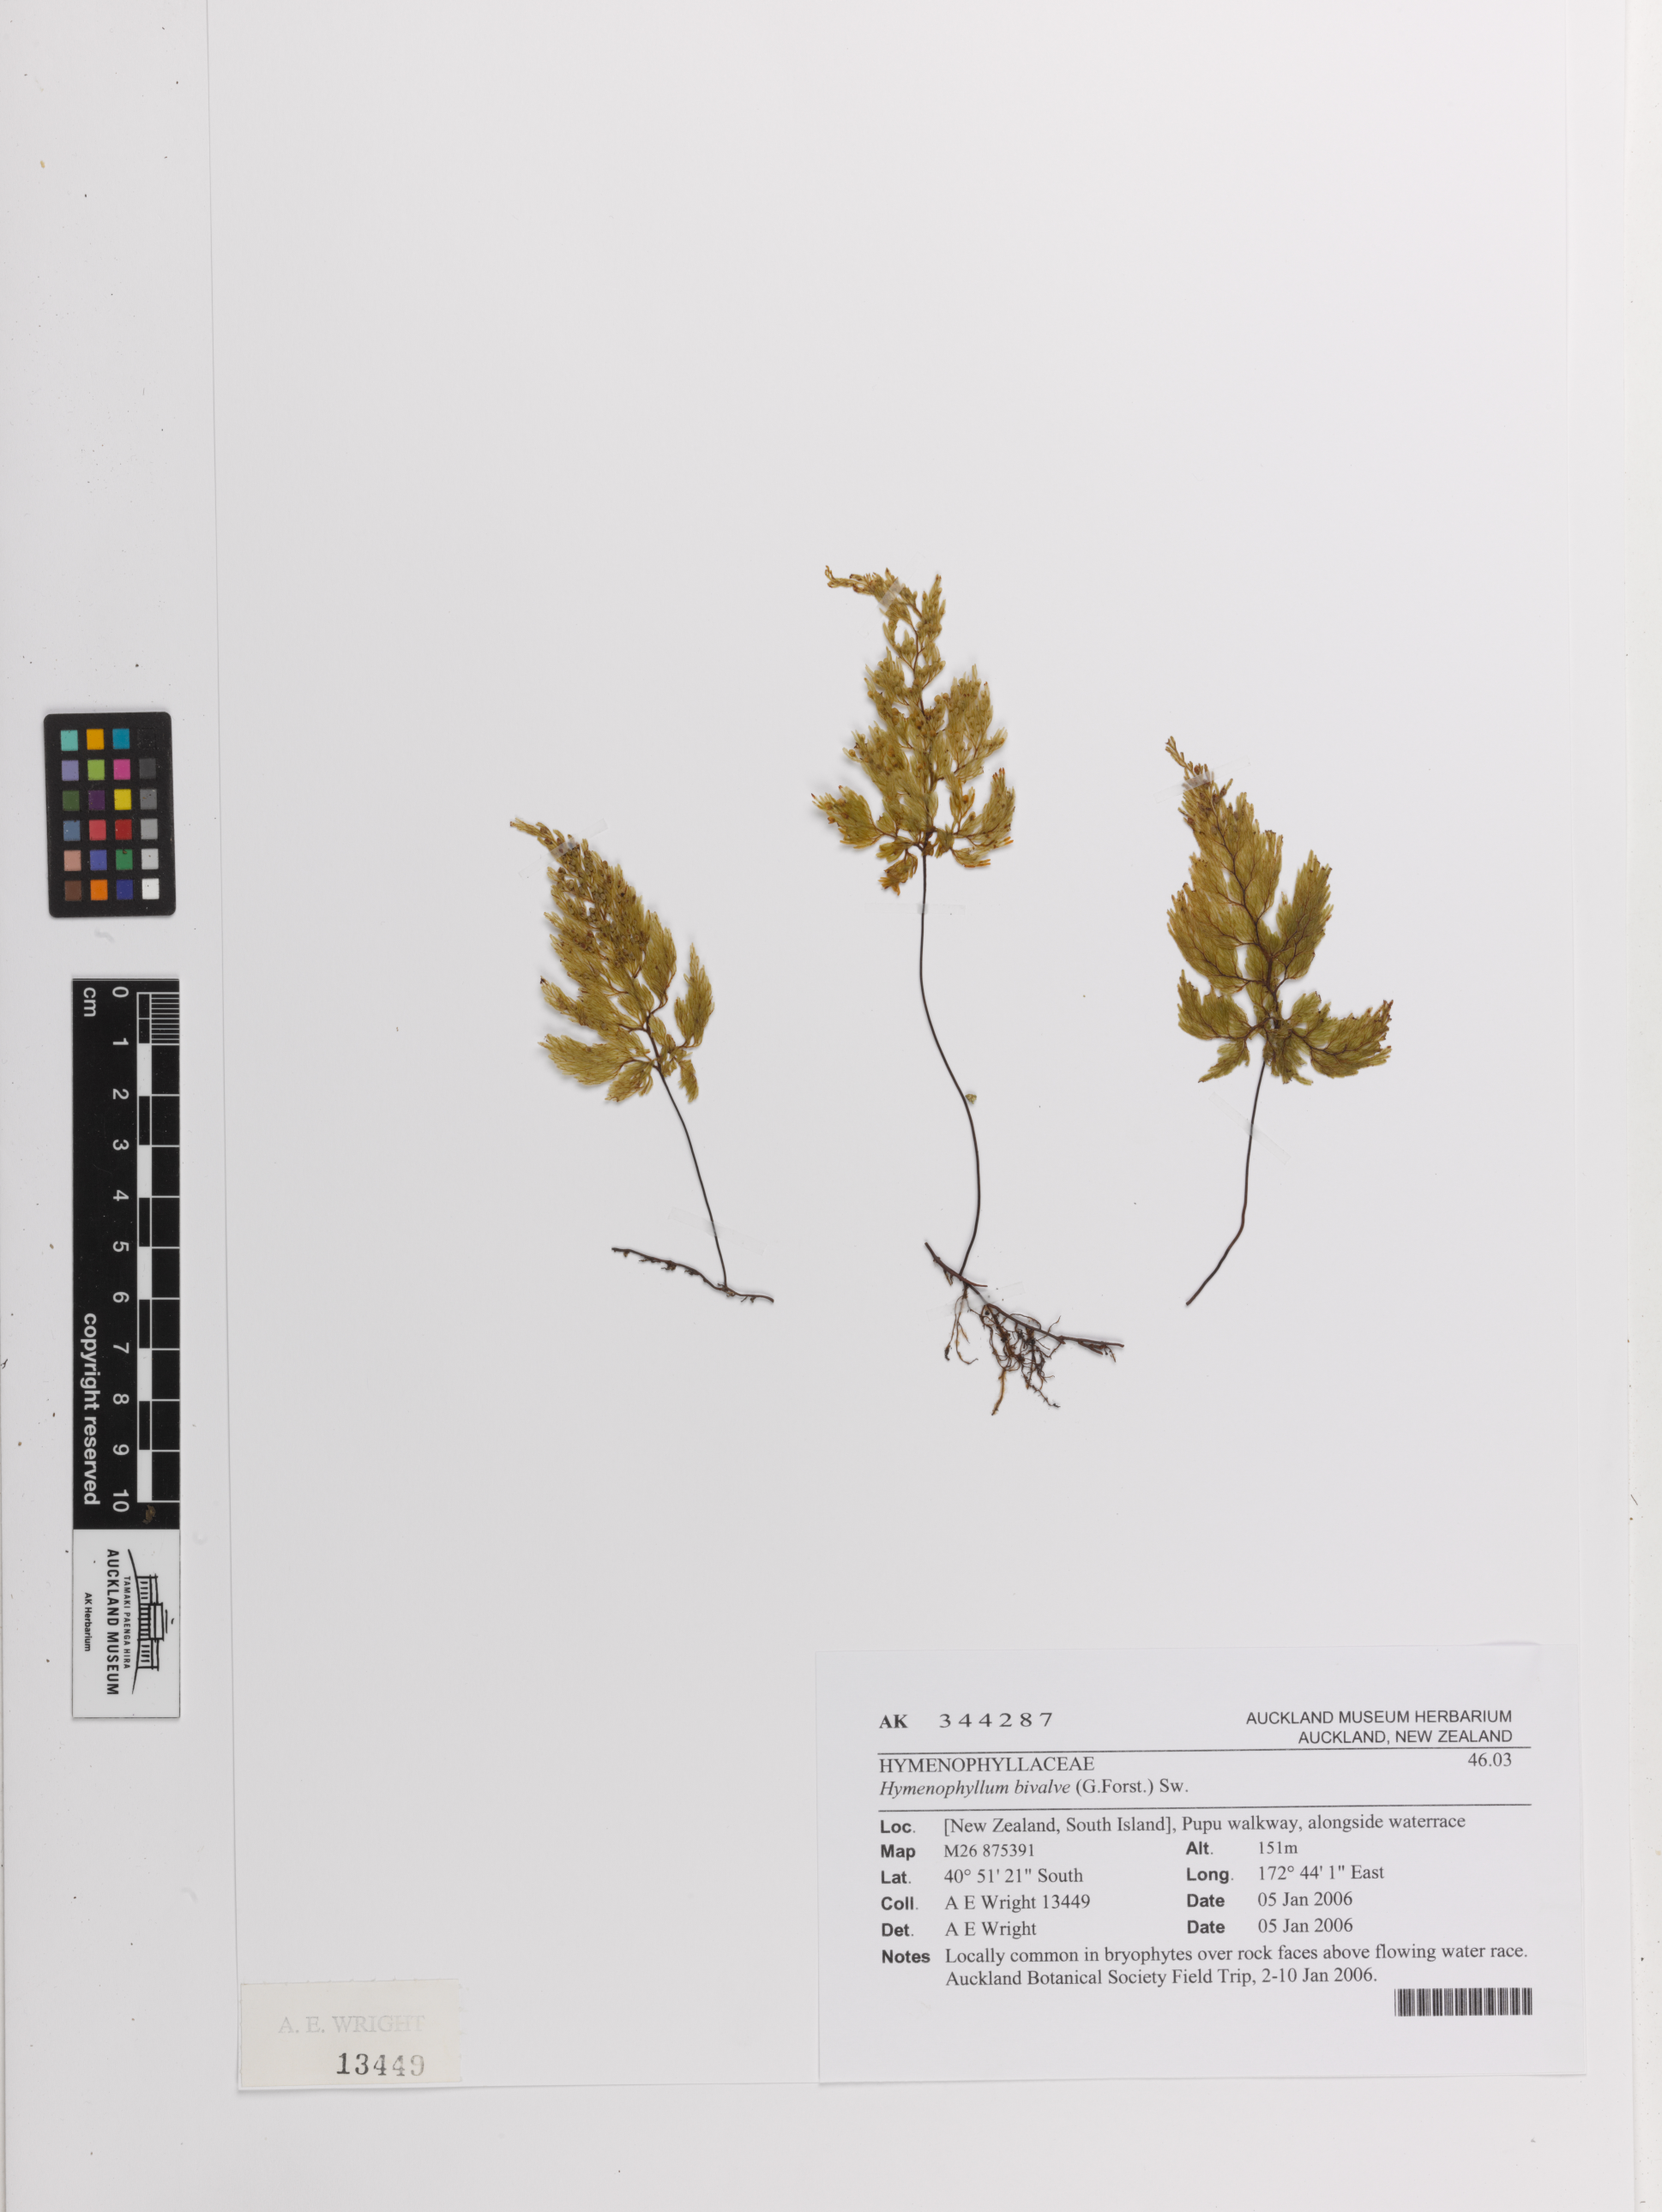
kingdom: Plantae
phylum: Tracheophyta
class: Polypodiopsida
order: Hymenophyllales
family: Hymenophyllaceae
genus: Hymenophyllum
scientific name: Hymenophyllum bivalve
